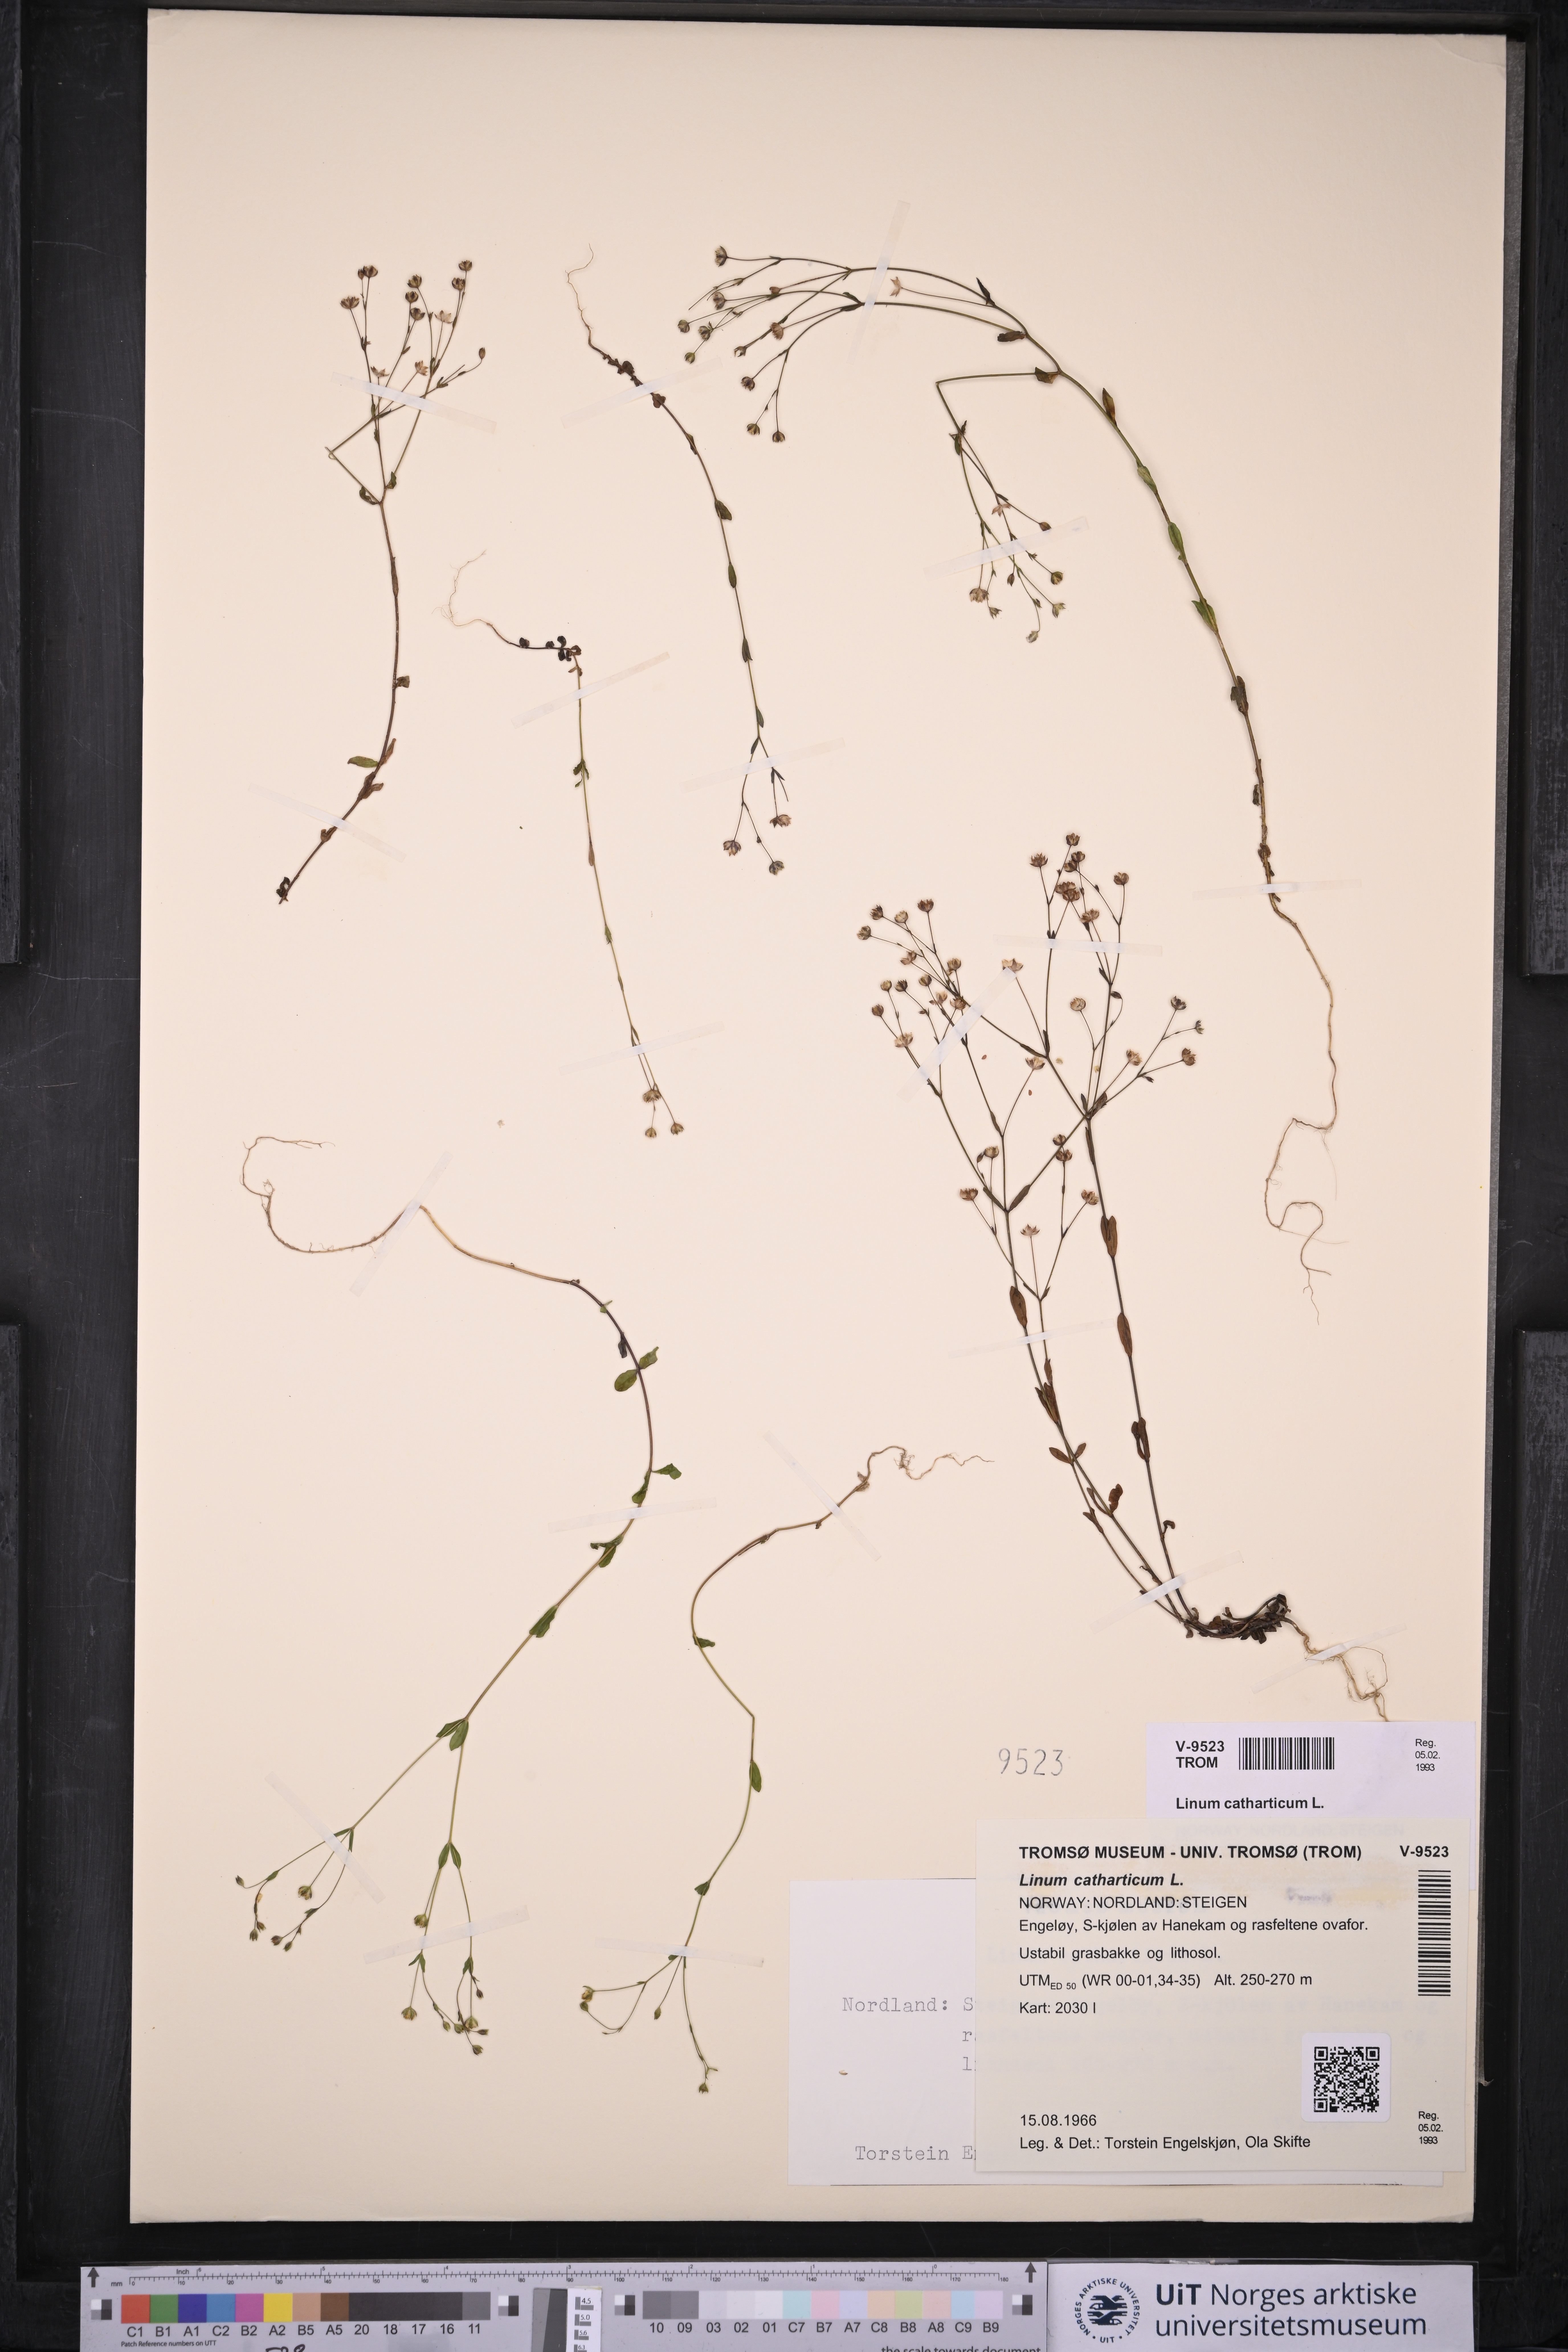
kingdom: Plantae
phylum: Tracheophyta
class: Magnoliopsida
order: Malpighiales
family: Linaceae
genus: Linum
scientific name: Linum catharticum
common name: Fairy flax
